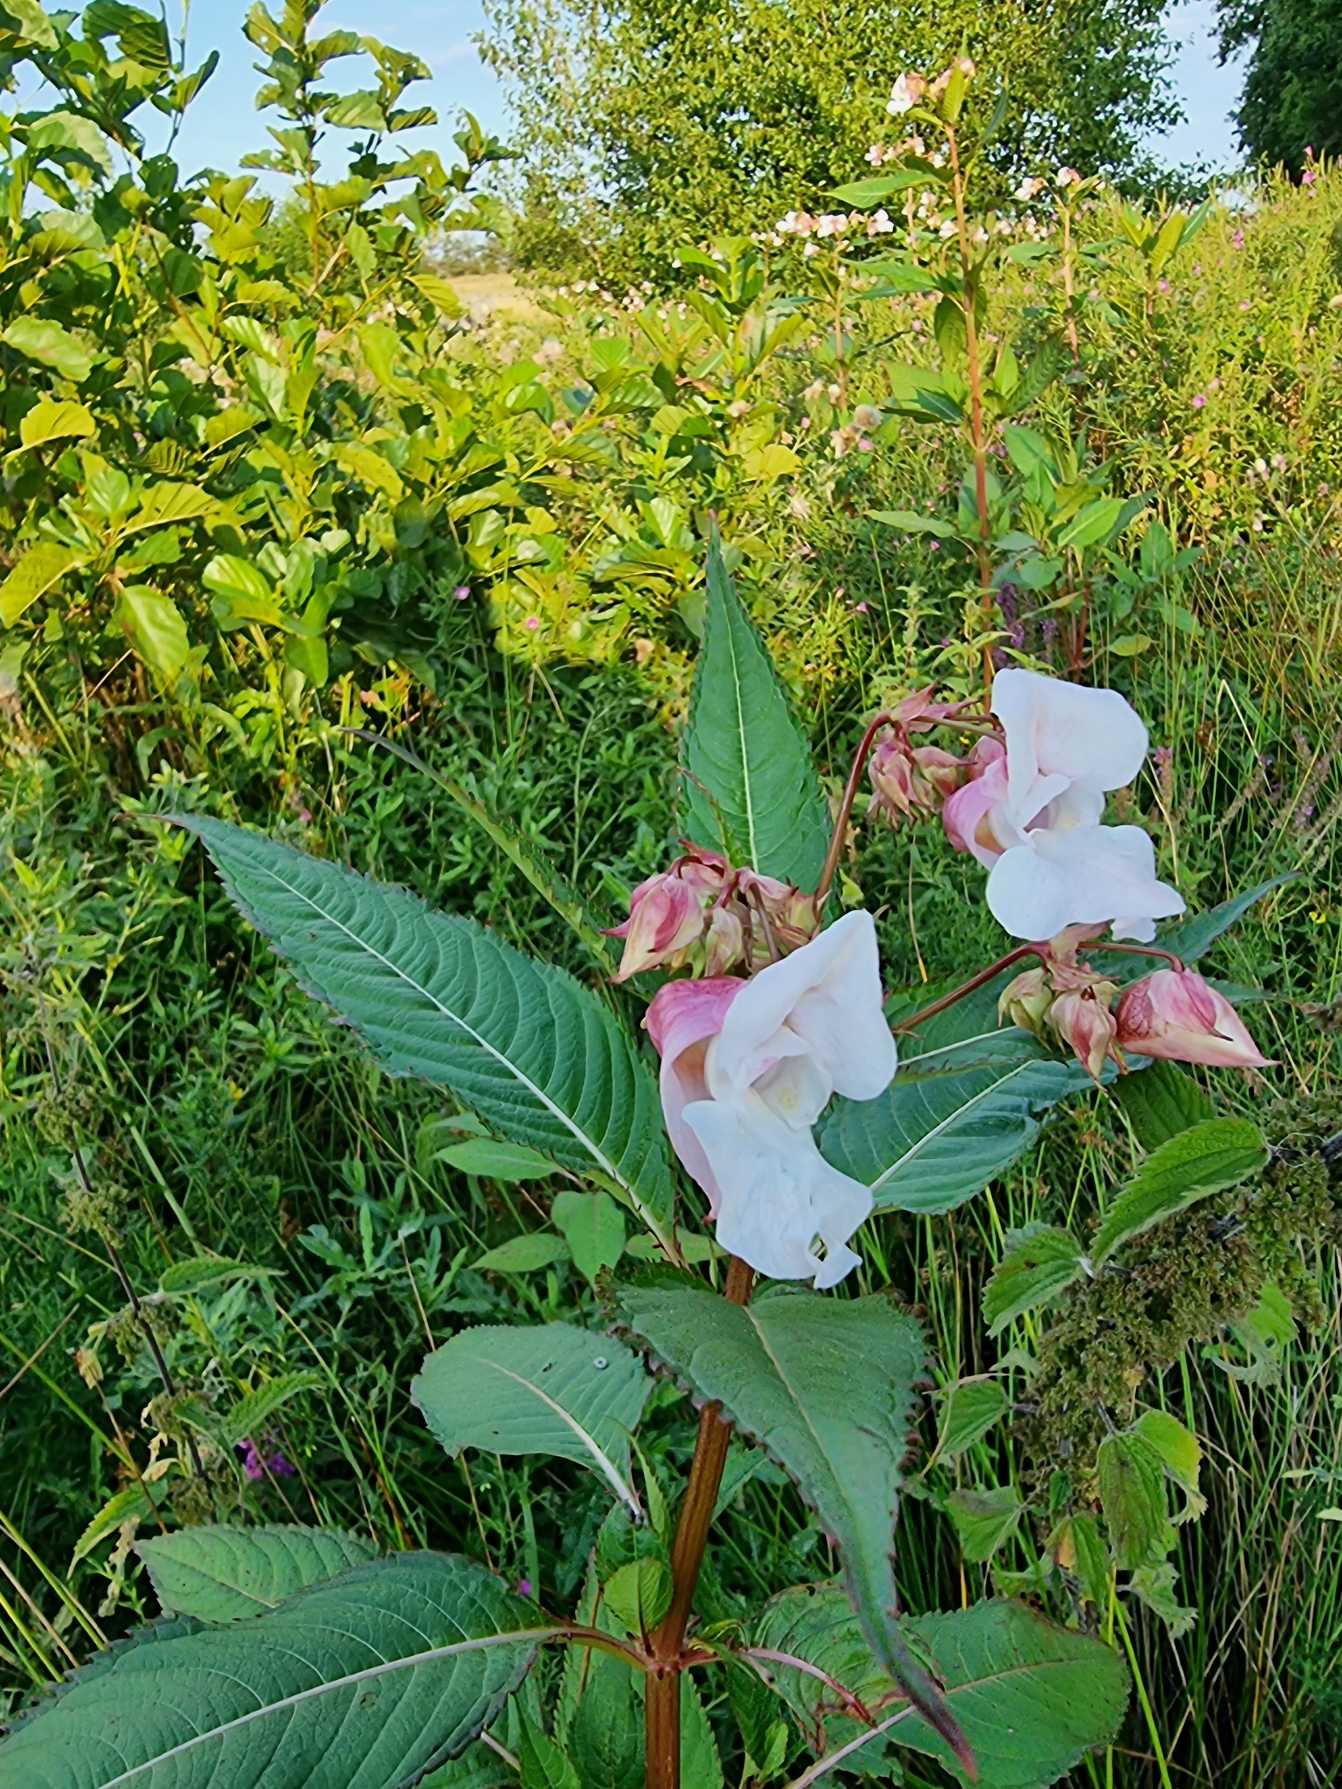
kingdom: Plantae
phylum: Tracheophyta
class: Magnoliopsida
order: Ericales
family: Balsaminaceae
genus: Impatiens
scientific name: Impatiens glandulifera
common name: Kæmpe-balsamin
